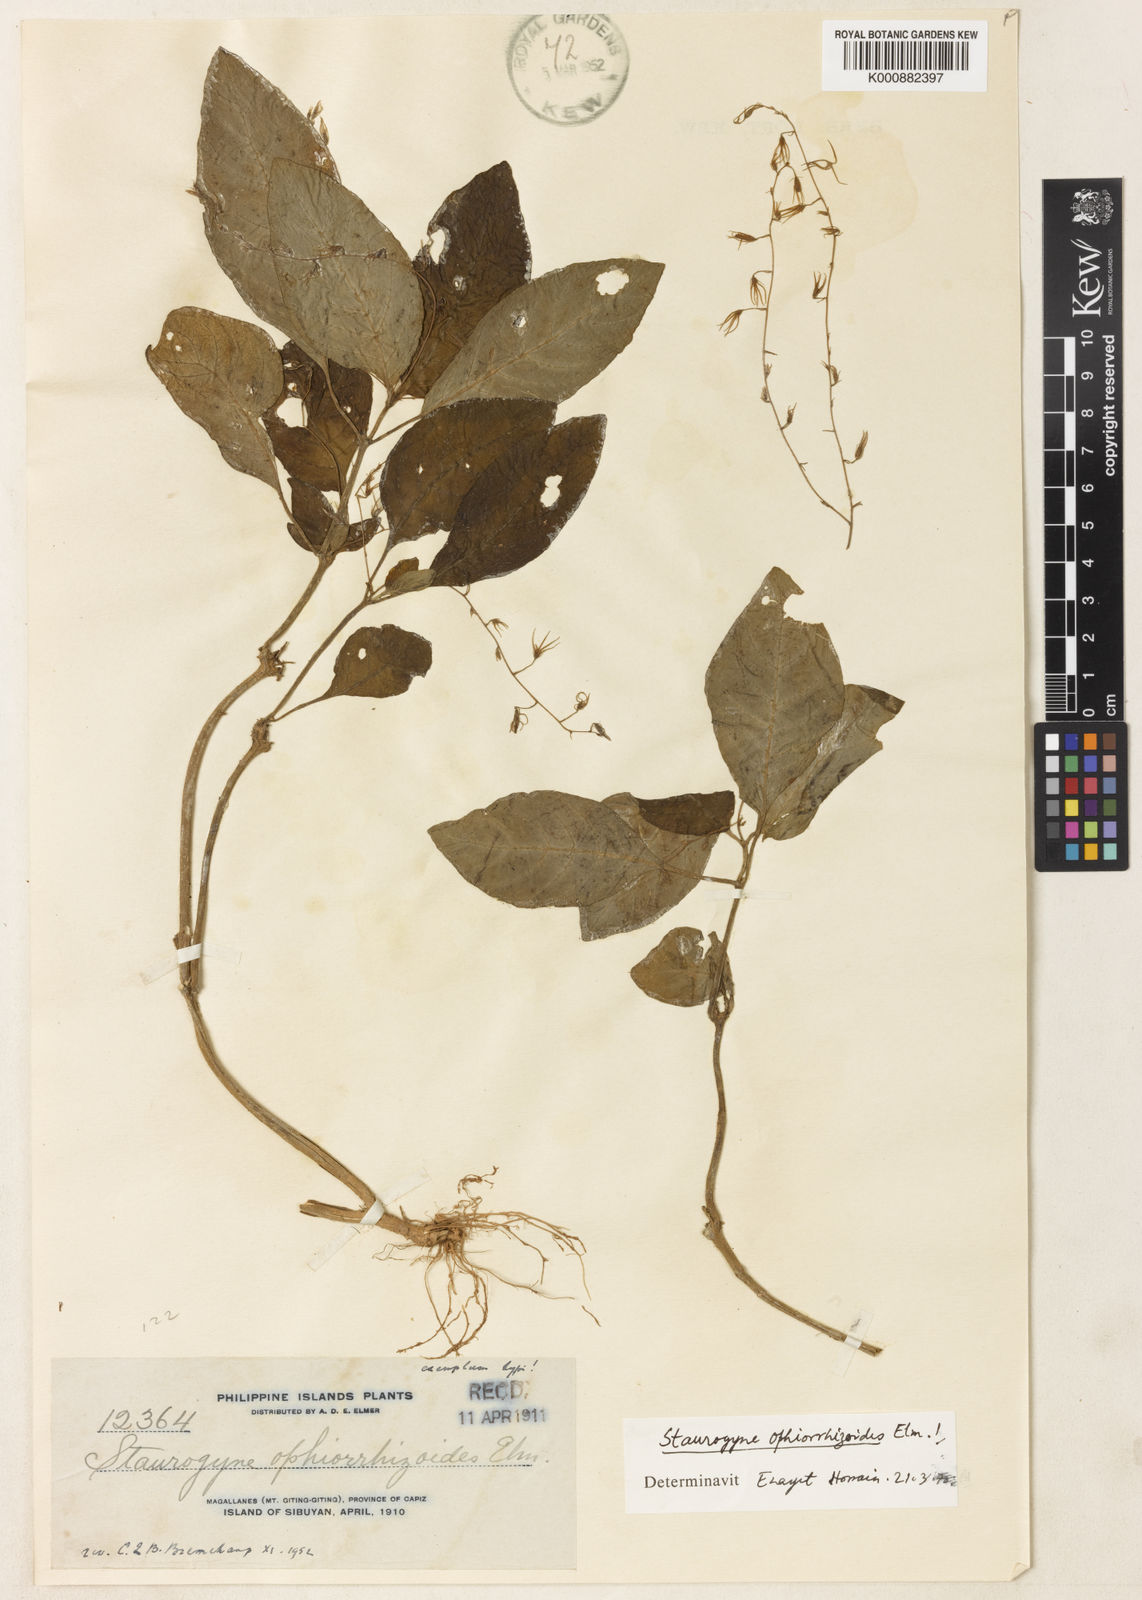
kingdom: Plantae
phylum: Tracheophyta
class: Magnoliopsida
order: Lamiales
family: Acanthaceae
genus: Staurogyne
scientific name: Staurogyne ophiorrhizoides
